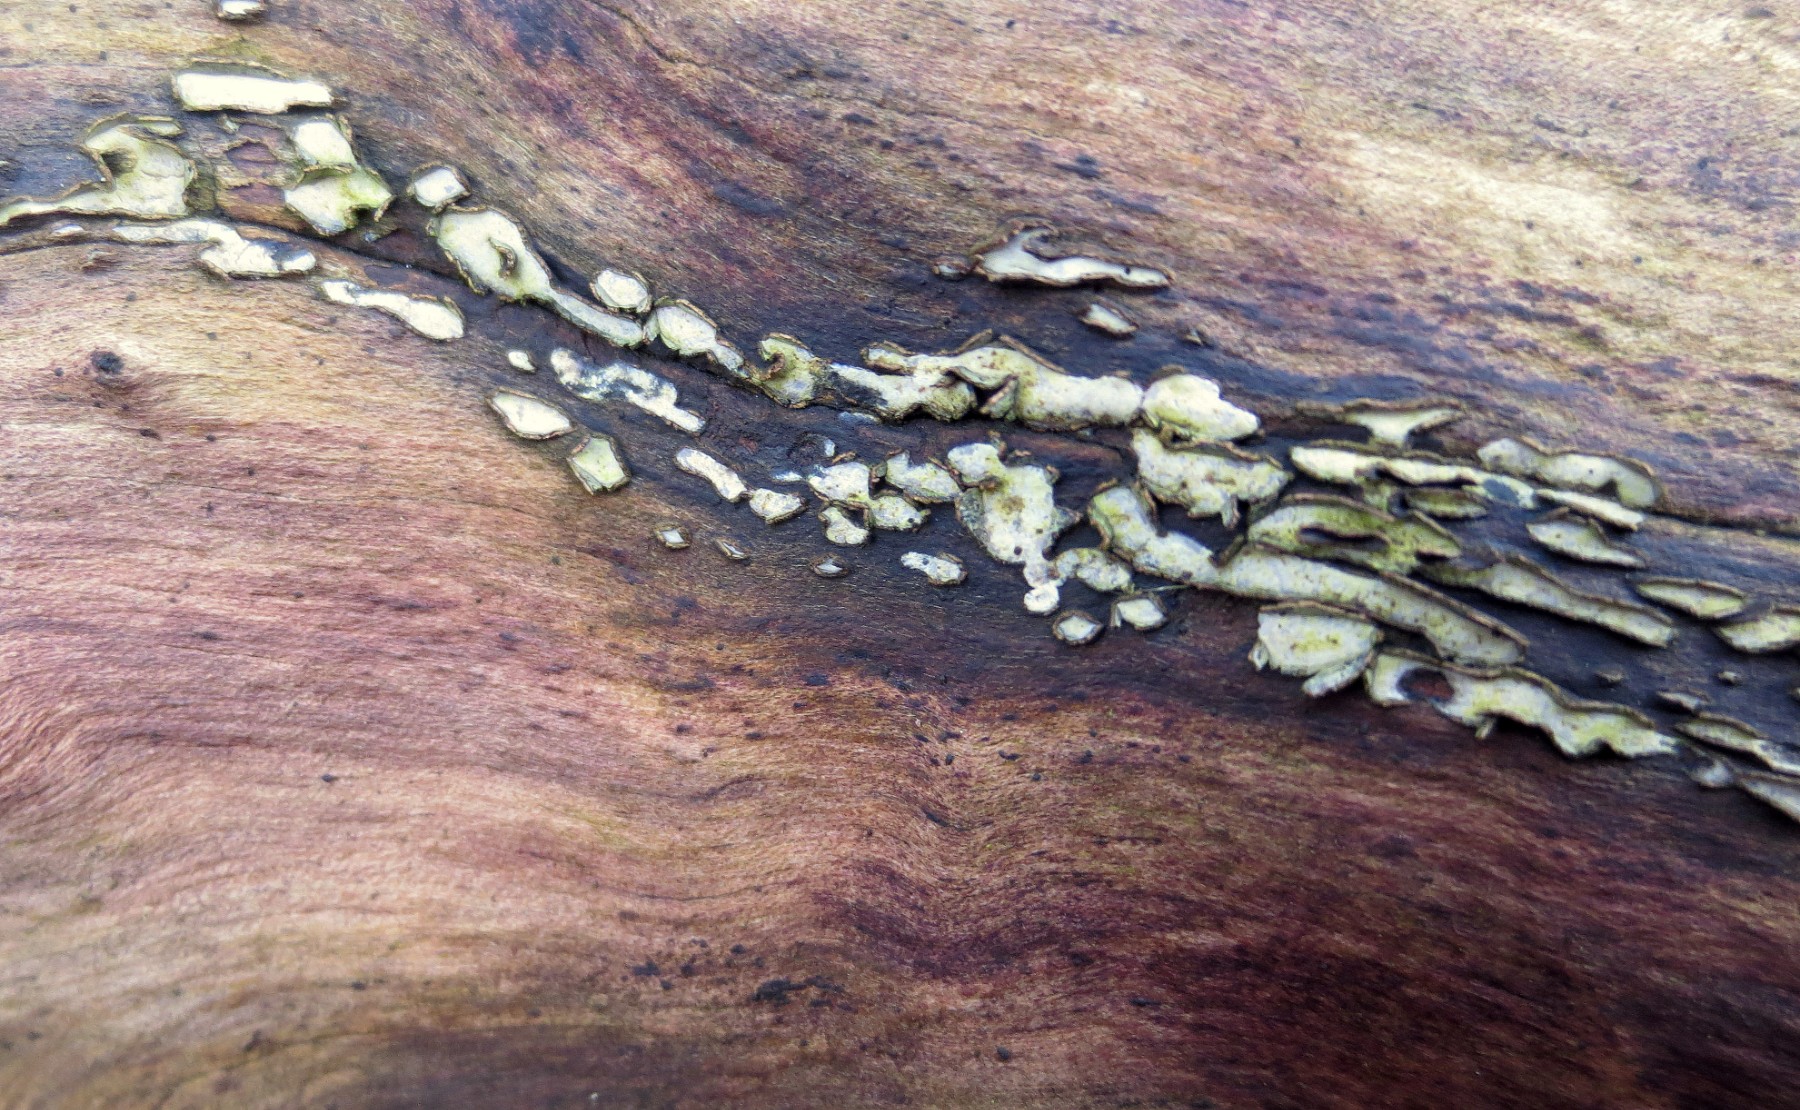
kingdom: Fungi
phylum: Ascomycota
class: Leotiomycetes
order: Chaetomellales
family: Marthamycetaceae
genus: Propolis
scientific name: Propolis farinosa
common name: almindelig vedsprængerskive
